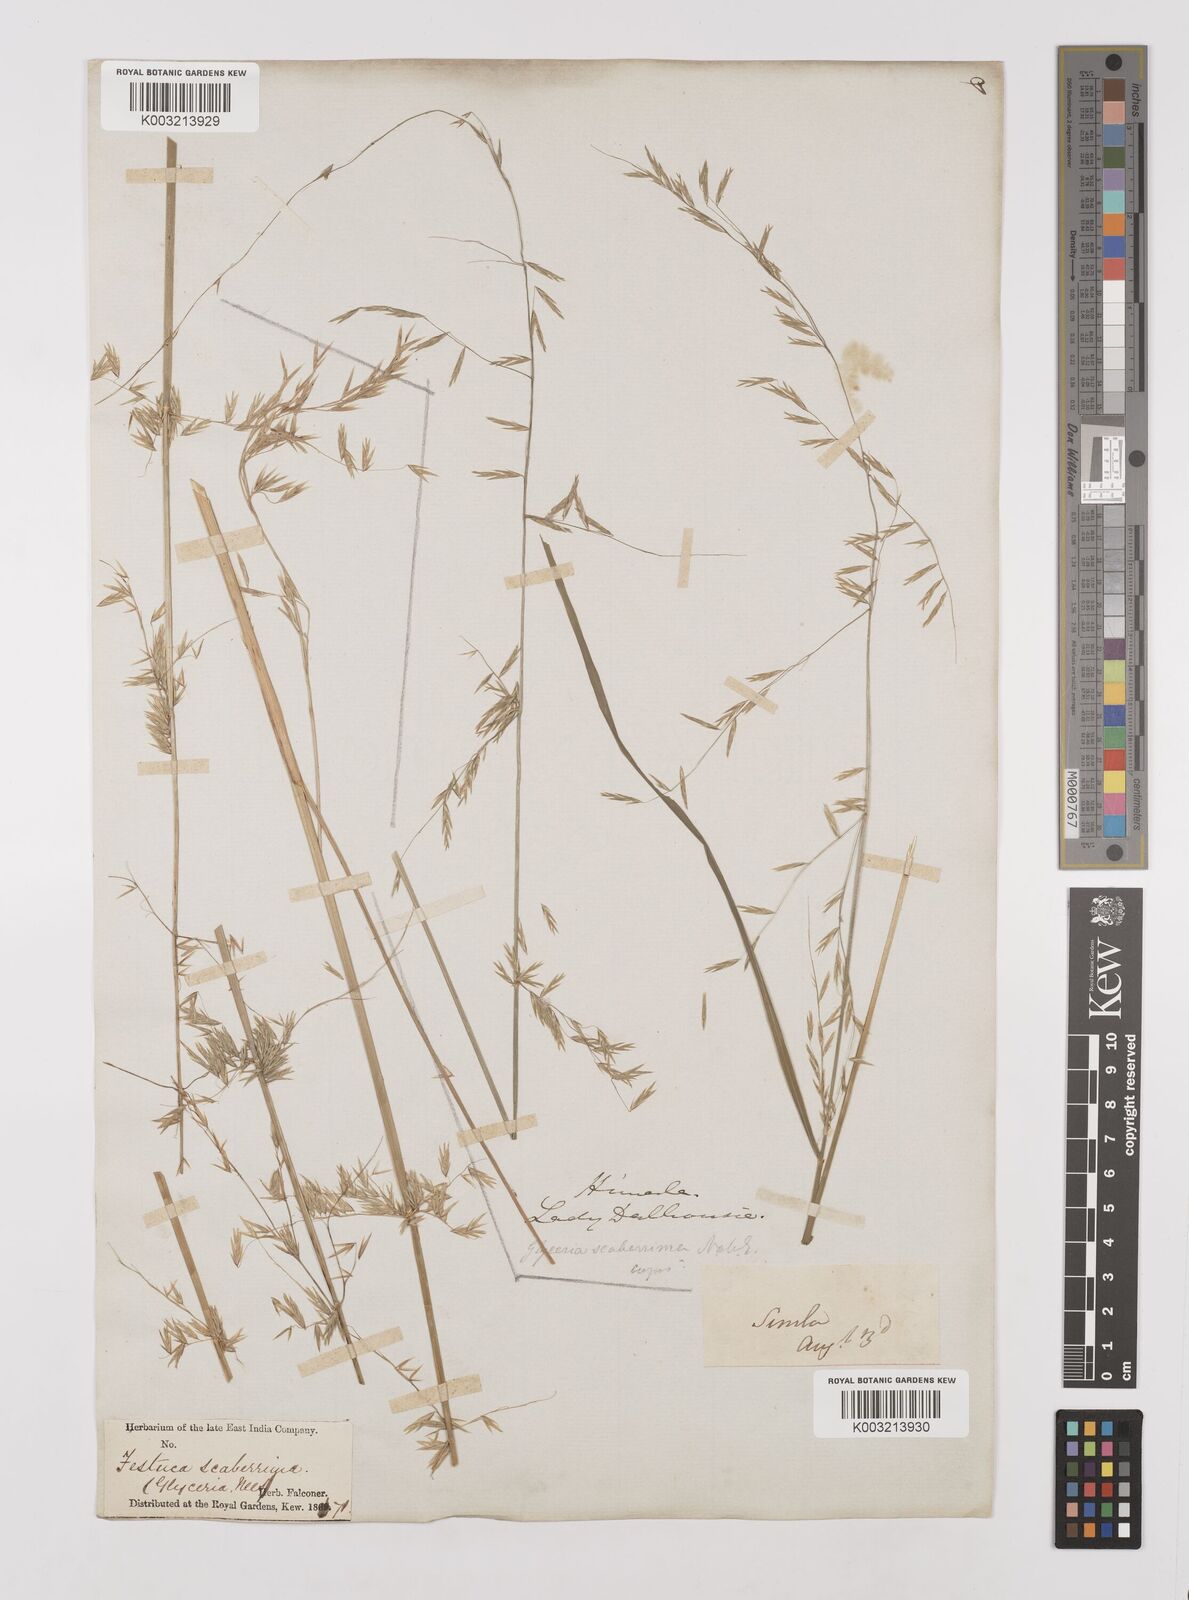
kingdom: Plantae
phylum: Tracheophyta
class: Liliopsida
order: Poales
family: Poaceae
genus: Melica
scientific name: Melica scaberrima
